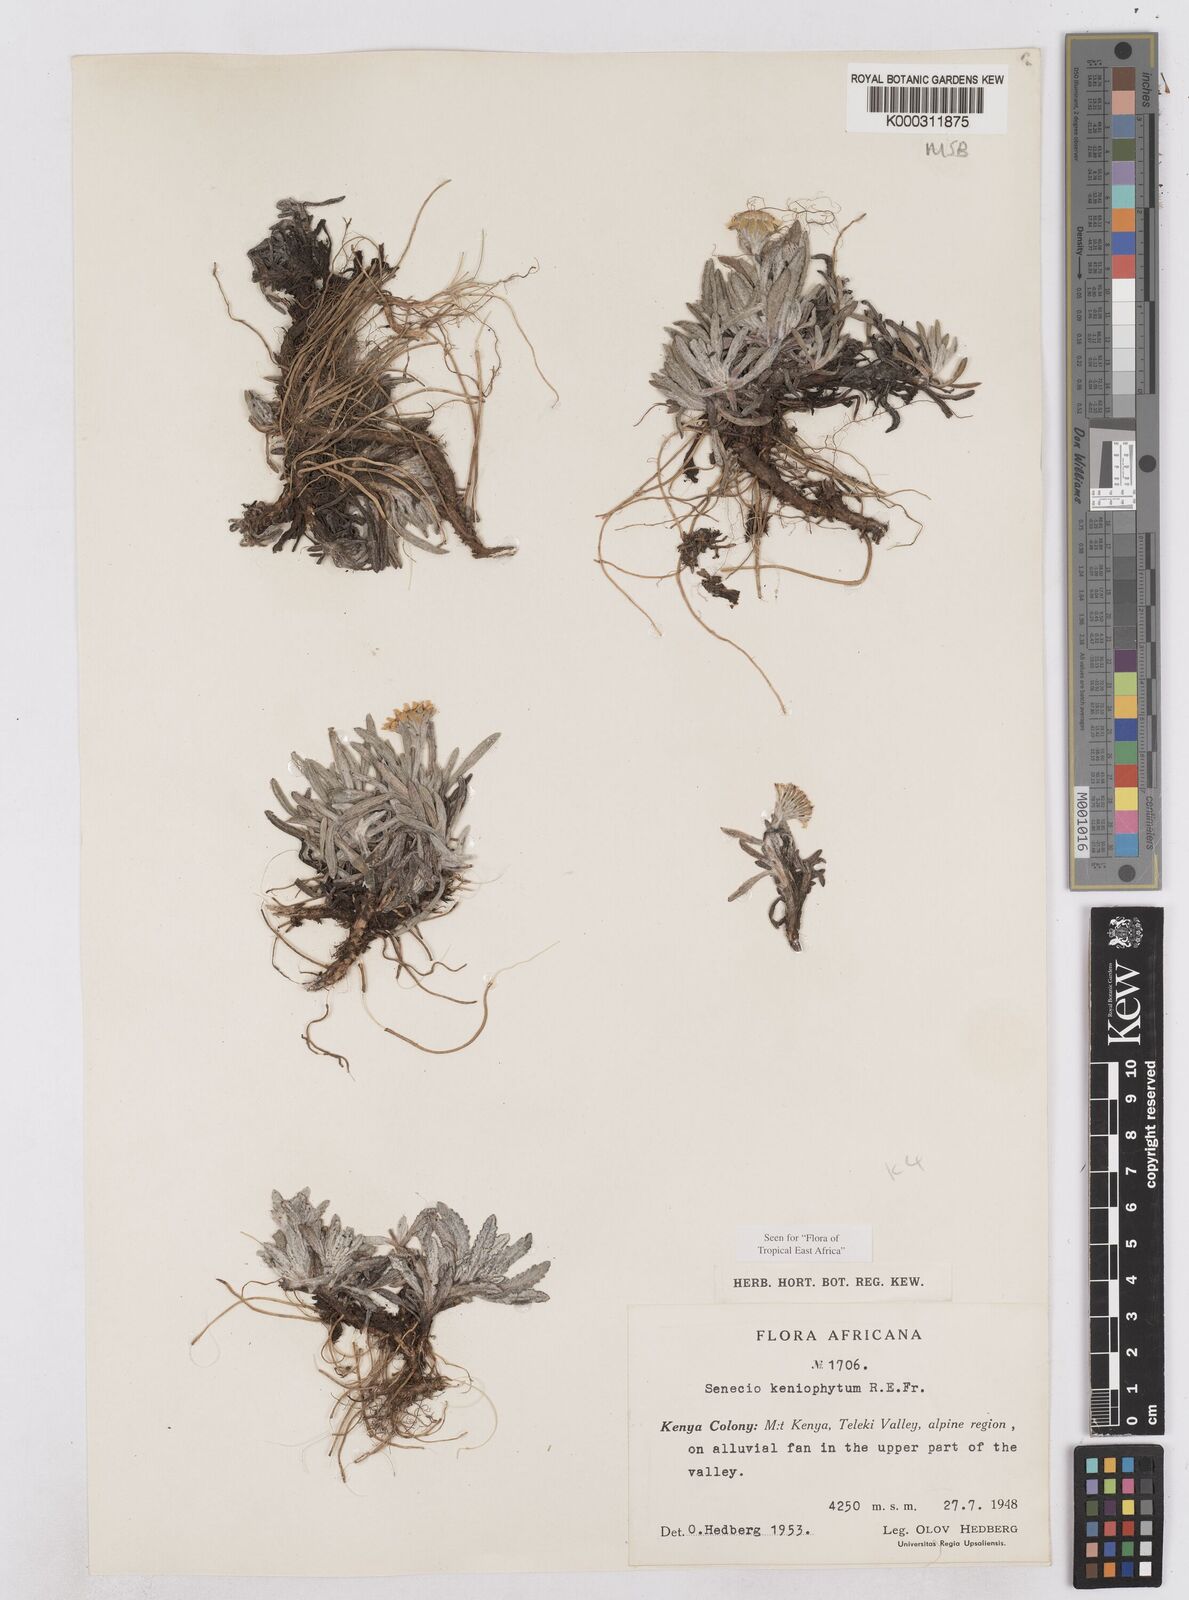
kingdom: Plantae
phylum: Tracheophyta
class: Magnoliopsida
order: Asterales
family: Asteraceae
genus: Senecio
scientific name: Senecio keniophytum
